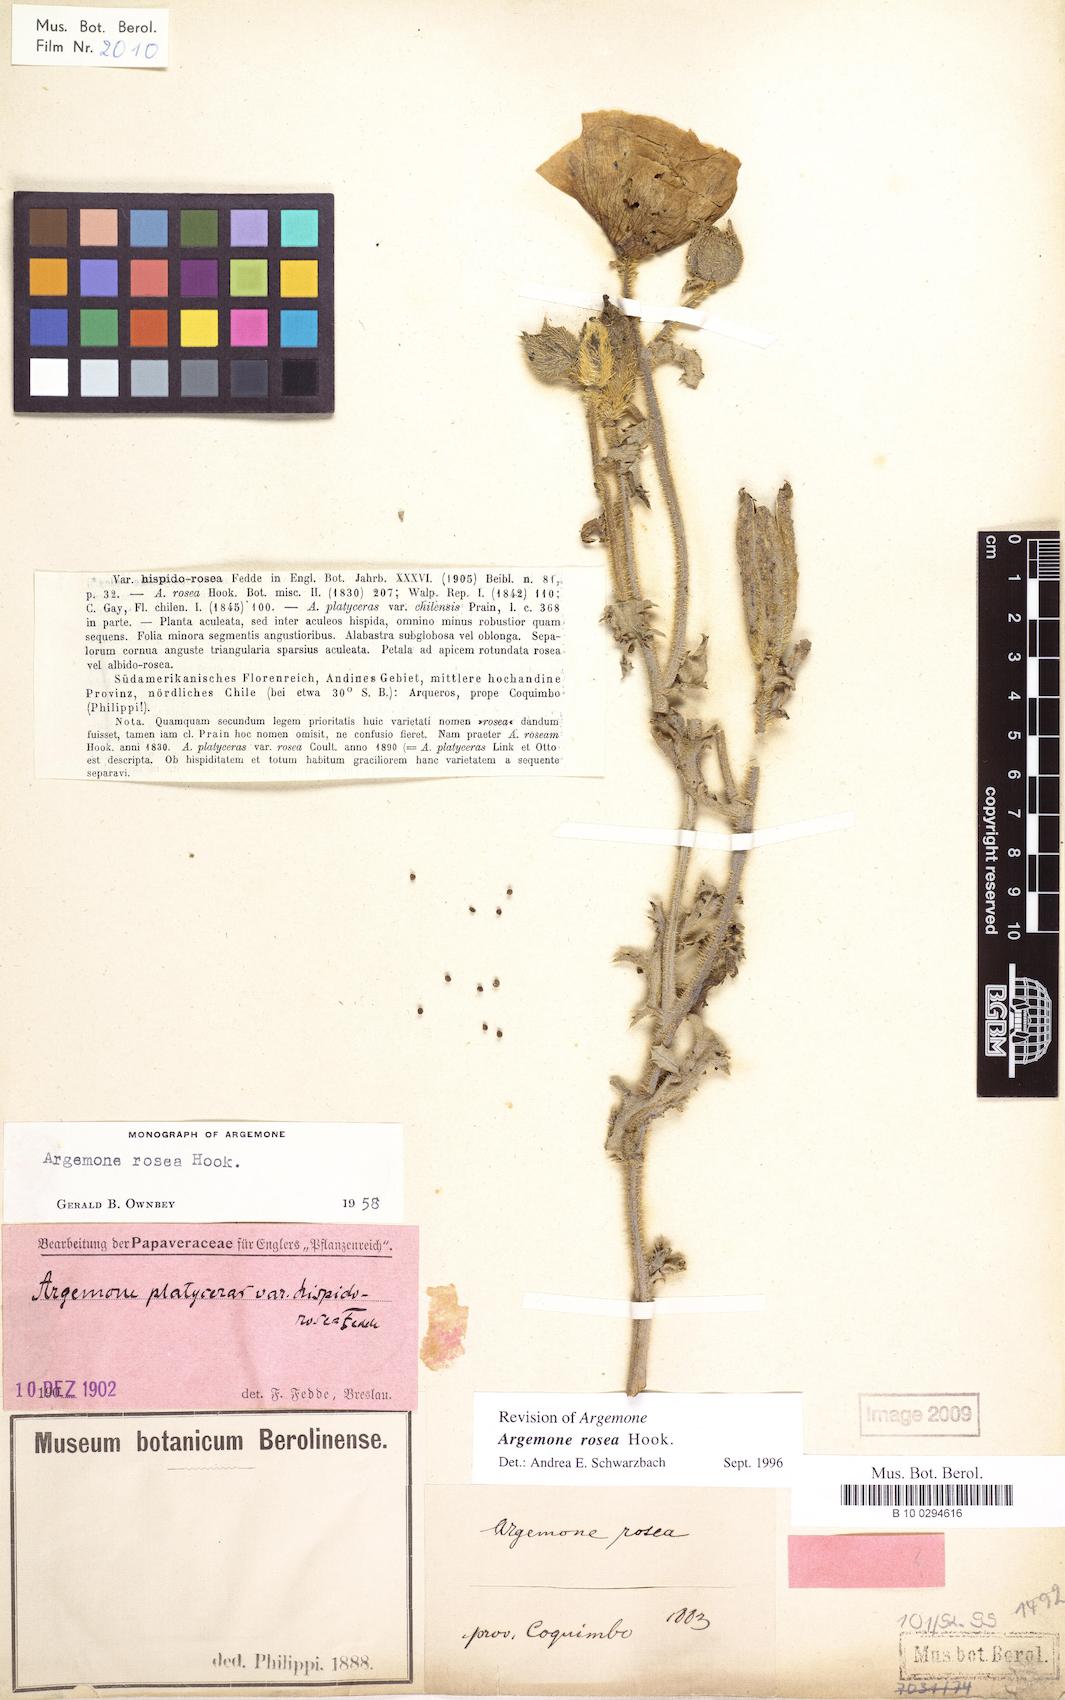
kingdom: Plantae
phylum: Tracheophyta
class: Magnoliopsida
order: Ranunculales
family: Papaveraceae
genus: Argemone
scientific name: Argemone rosea
